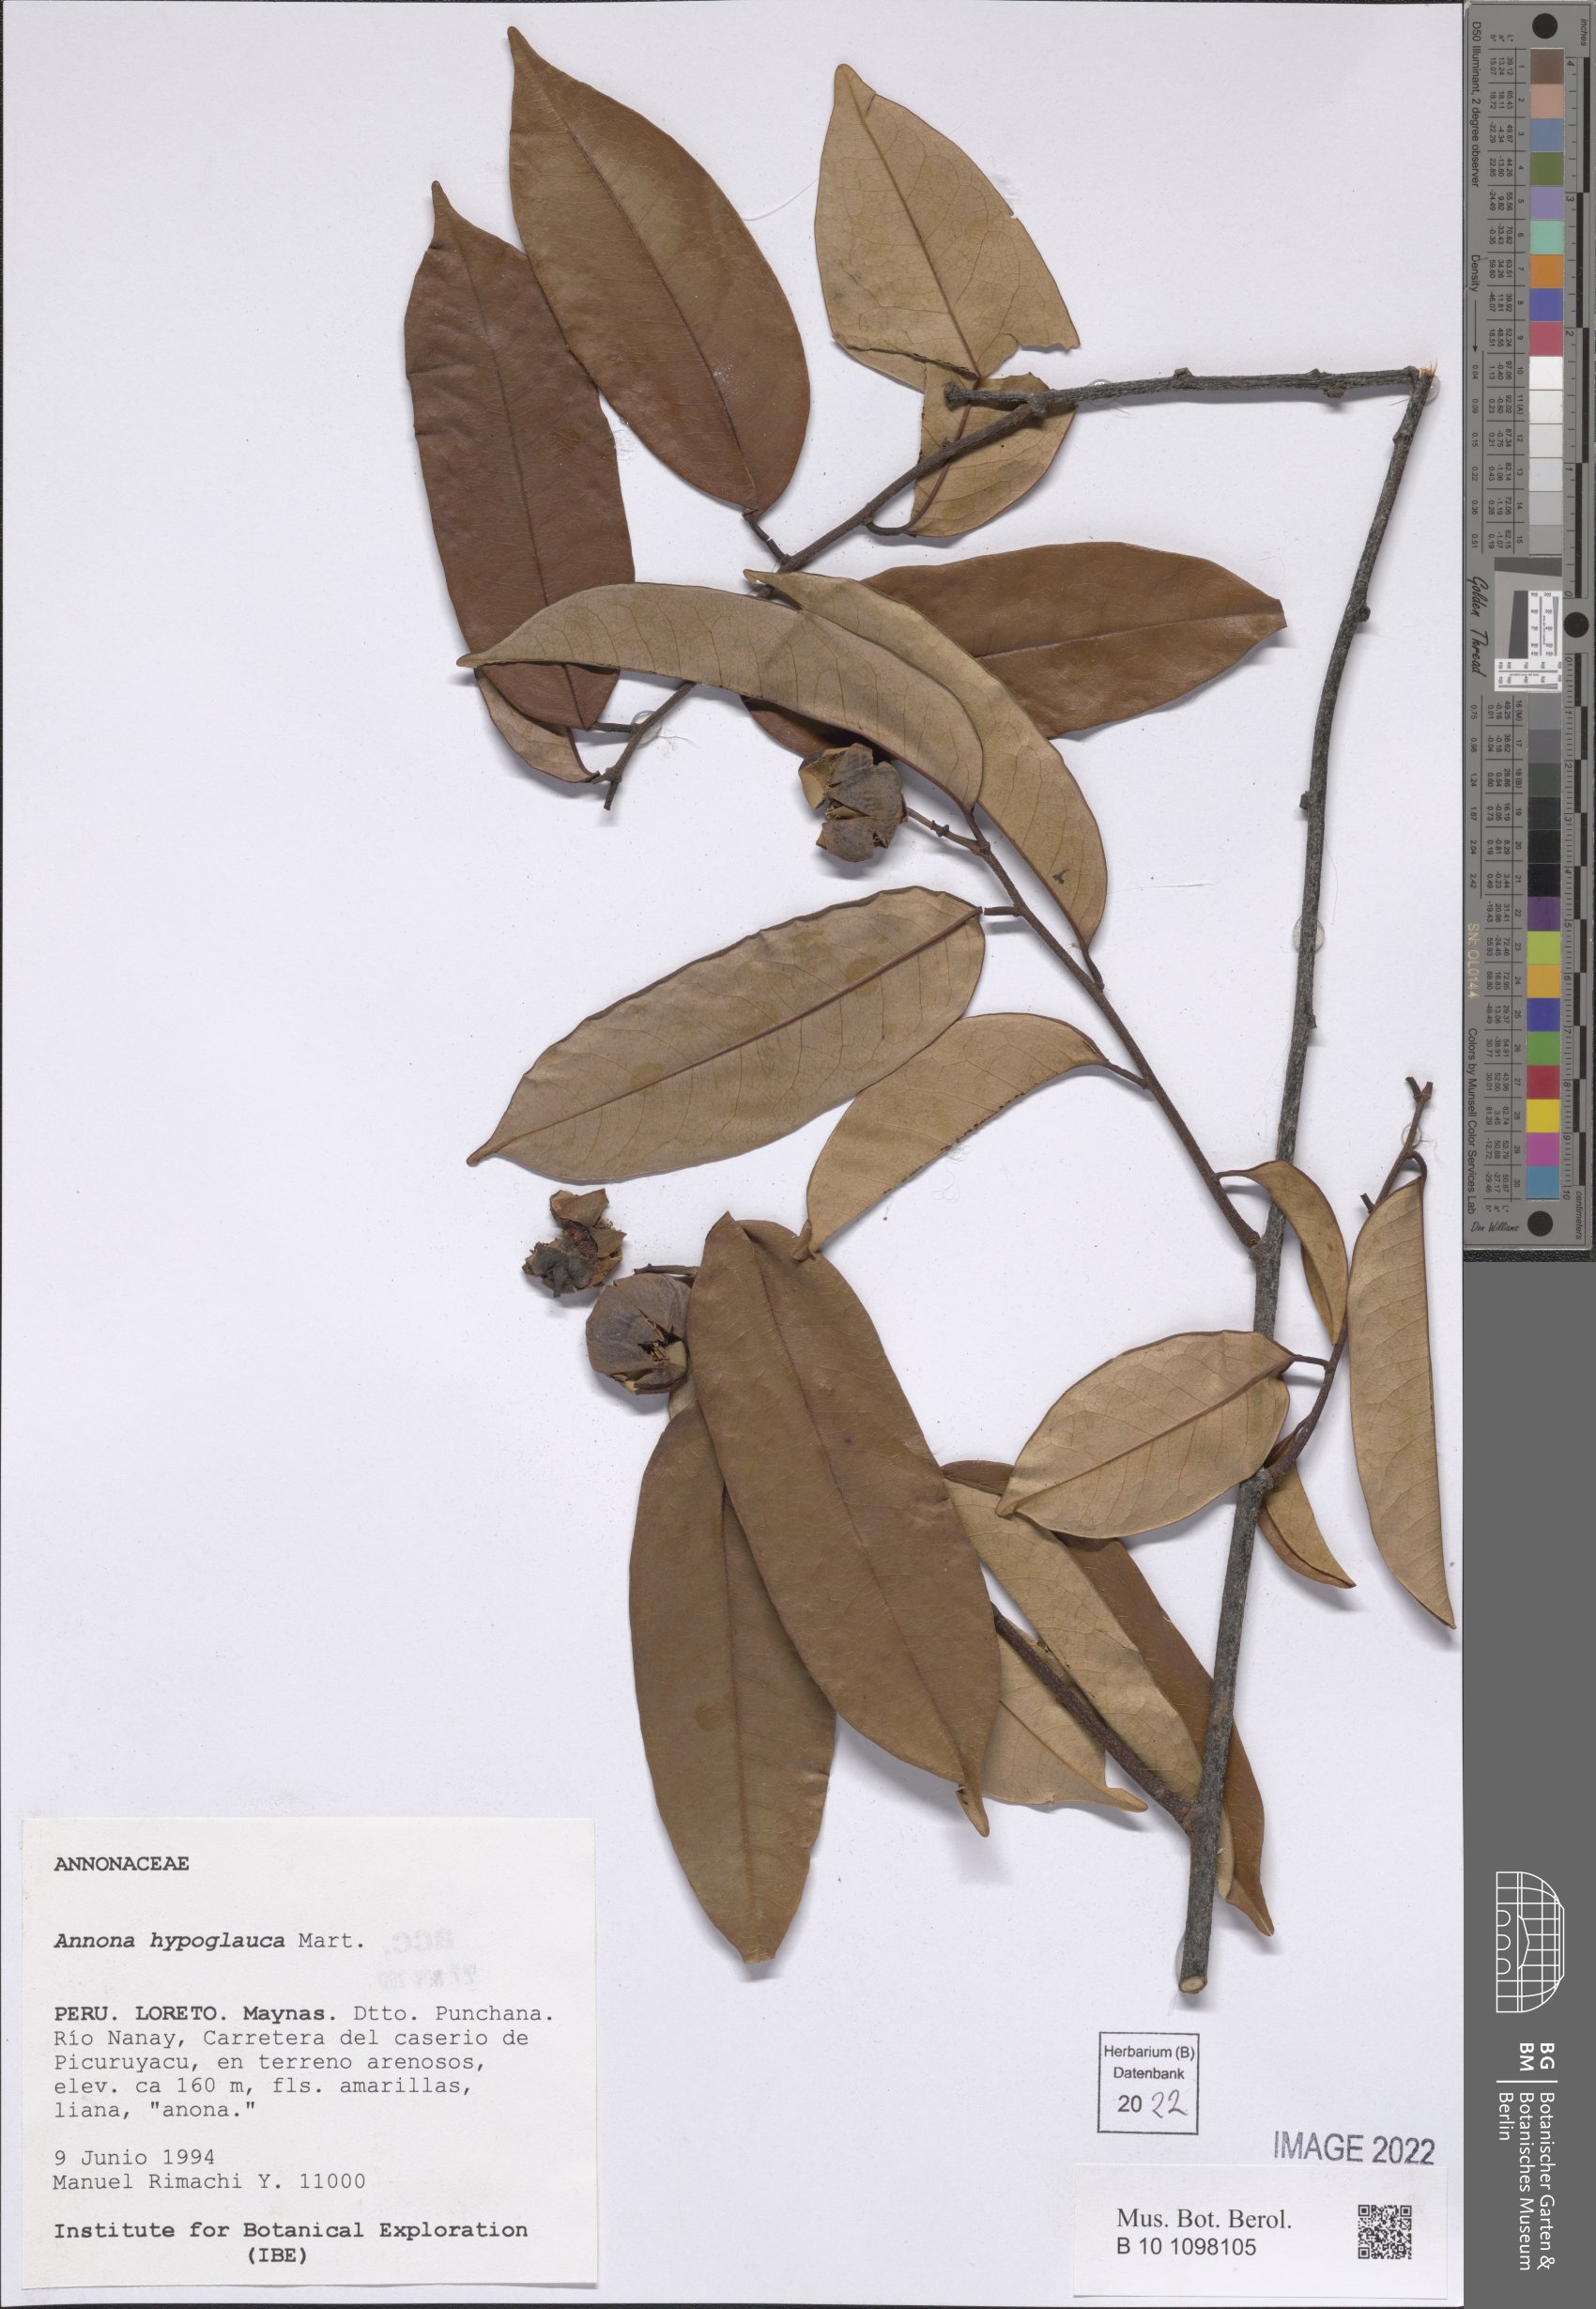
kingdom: Plantae
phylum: Tracheophyta
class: Magnoliopsida
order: Magnoliales
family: Annonaceae
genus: Annona
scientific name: Annona hypoglauca
